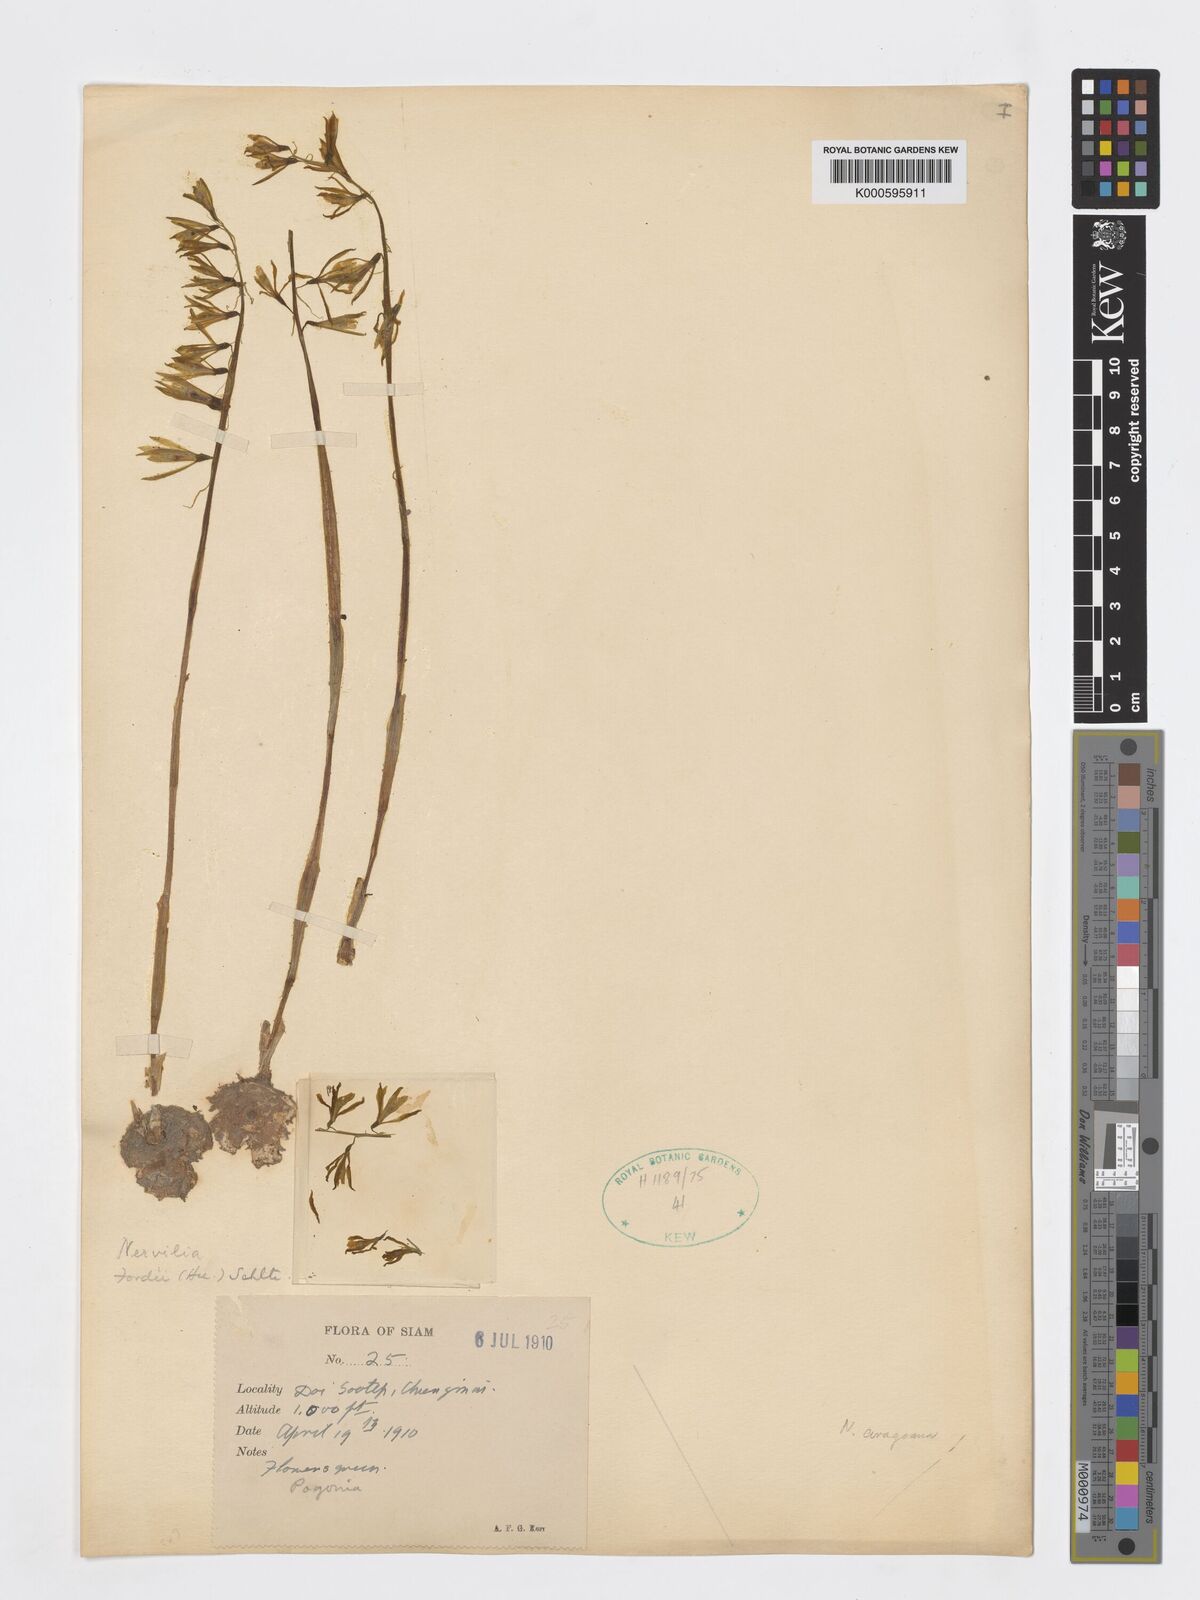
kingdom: Plantae
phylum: Tracheophyta
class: Liliopsida
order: Asparagales
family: Orchidaceae
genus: Nervilia
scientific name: Nervilia concolor
